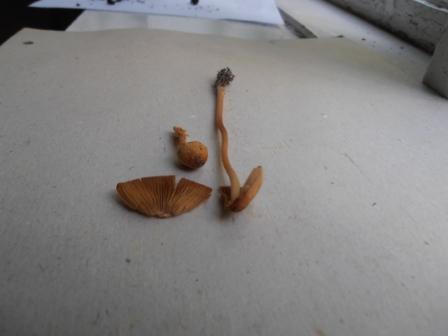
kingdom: Fungi
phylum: Basidiomycota
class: Agaricomycetes
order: Agaricales
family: Bolbitiaceae
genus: Conocybe
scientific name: Conocybe semiglobata
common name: halvkugleformet keglehat
